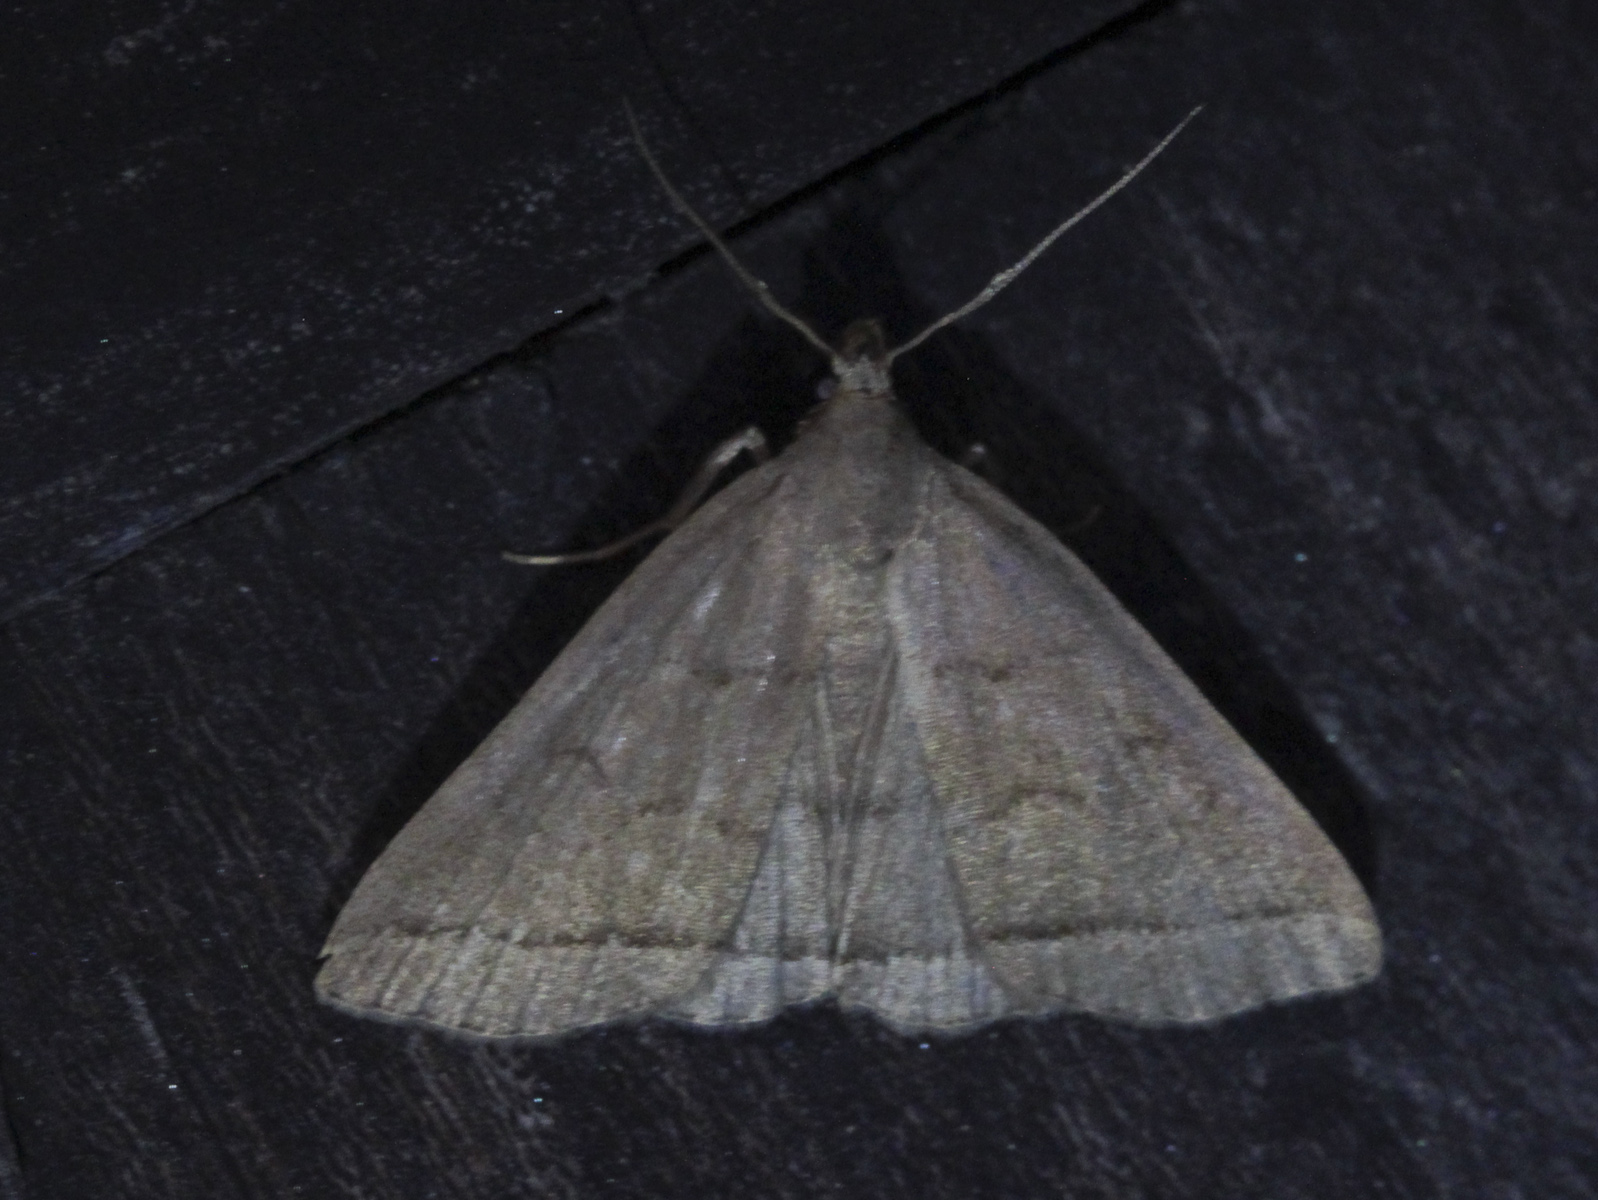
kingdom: Animalia
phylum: Arthropoda
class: Insecta
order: Lepidoptera
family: Erebidae
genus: Herminia
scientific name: Herminia tarsipennalis
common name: Fan-foot
